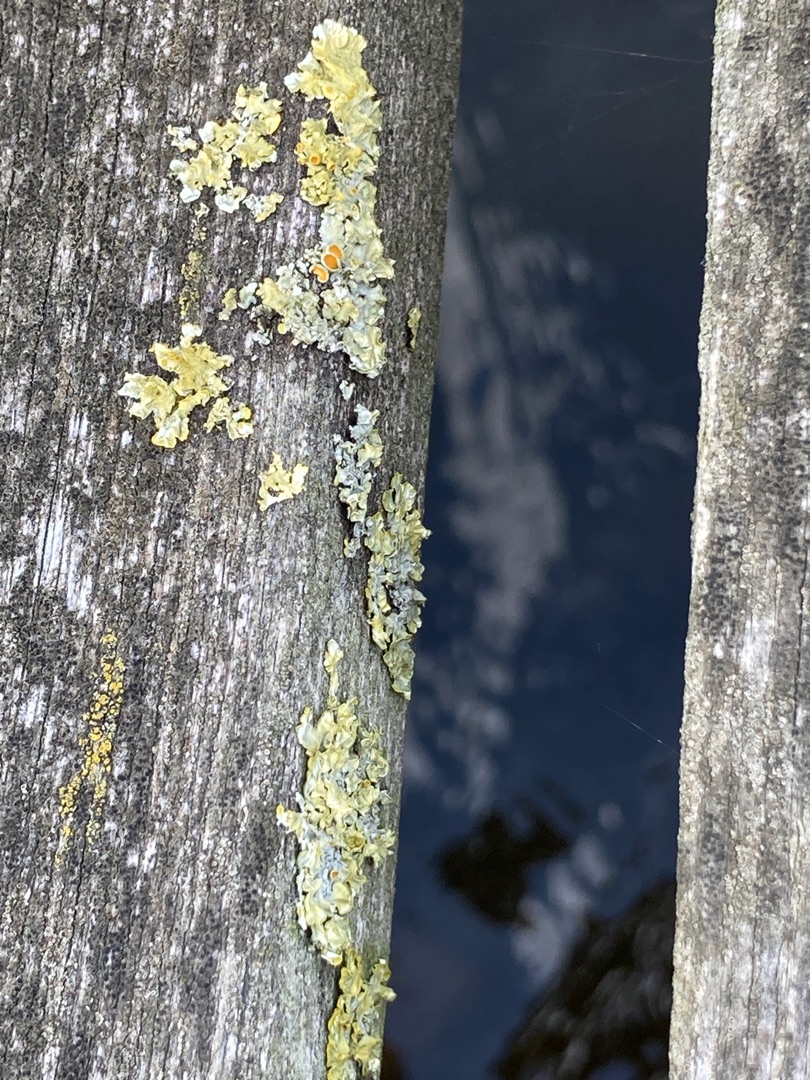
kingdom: Fungi
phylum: Ascomycota
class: Lecanoromycetes
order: Teloschistales
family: Teloschistaceae
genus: Xanthoria
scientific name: Xanthoria parietina
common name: Almindelig væggelav
